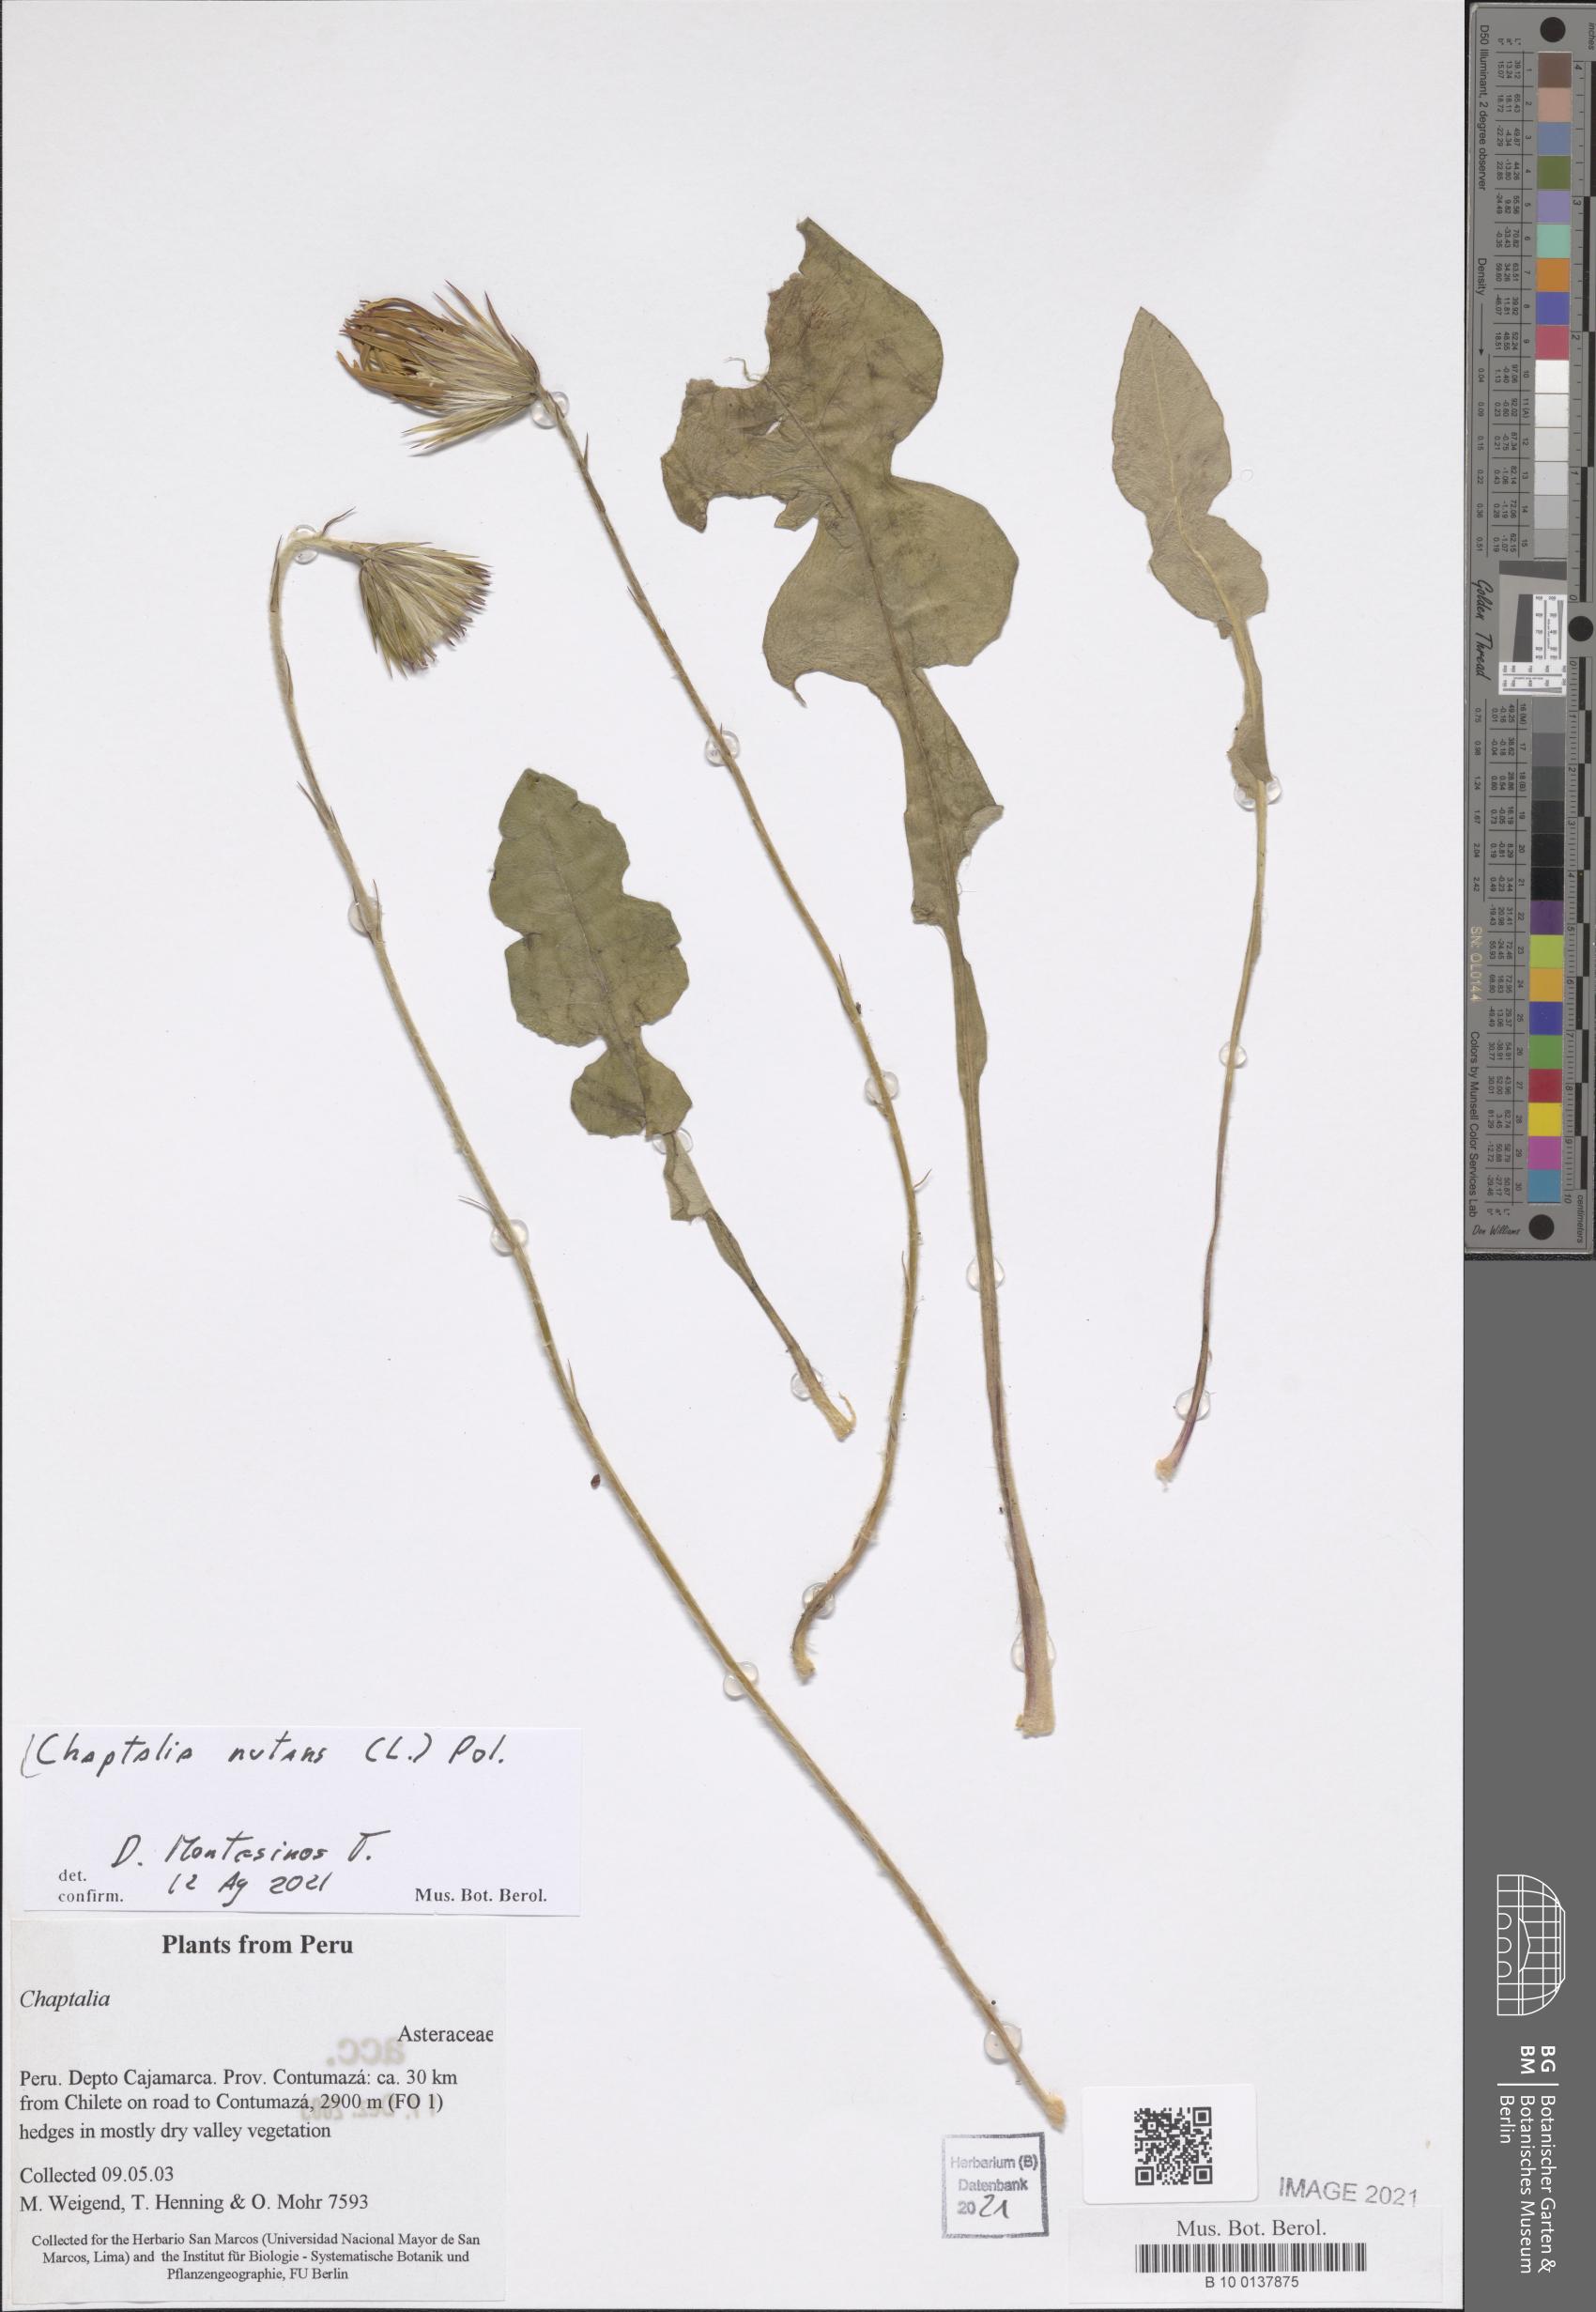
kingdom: Plantae
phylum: Tracheophyta
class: Magnoliopsida
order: Asterales
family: Asteraceae
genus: Chaptalia
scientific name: Chaptalia nutans
